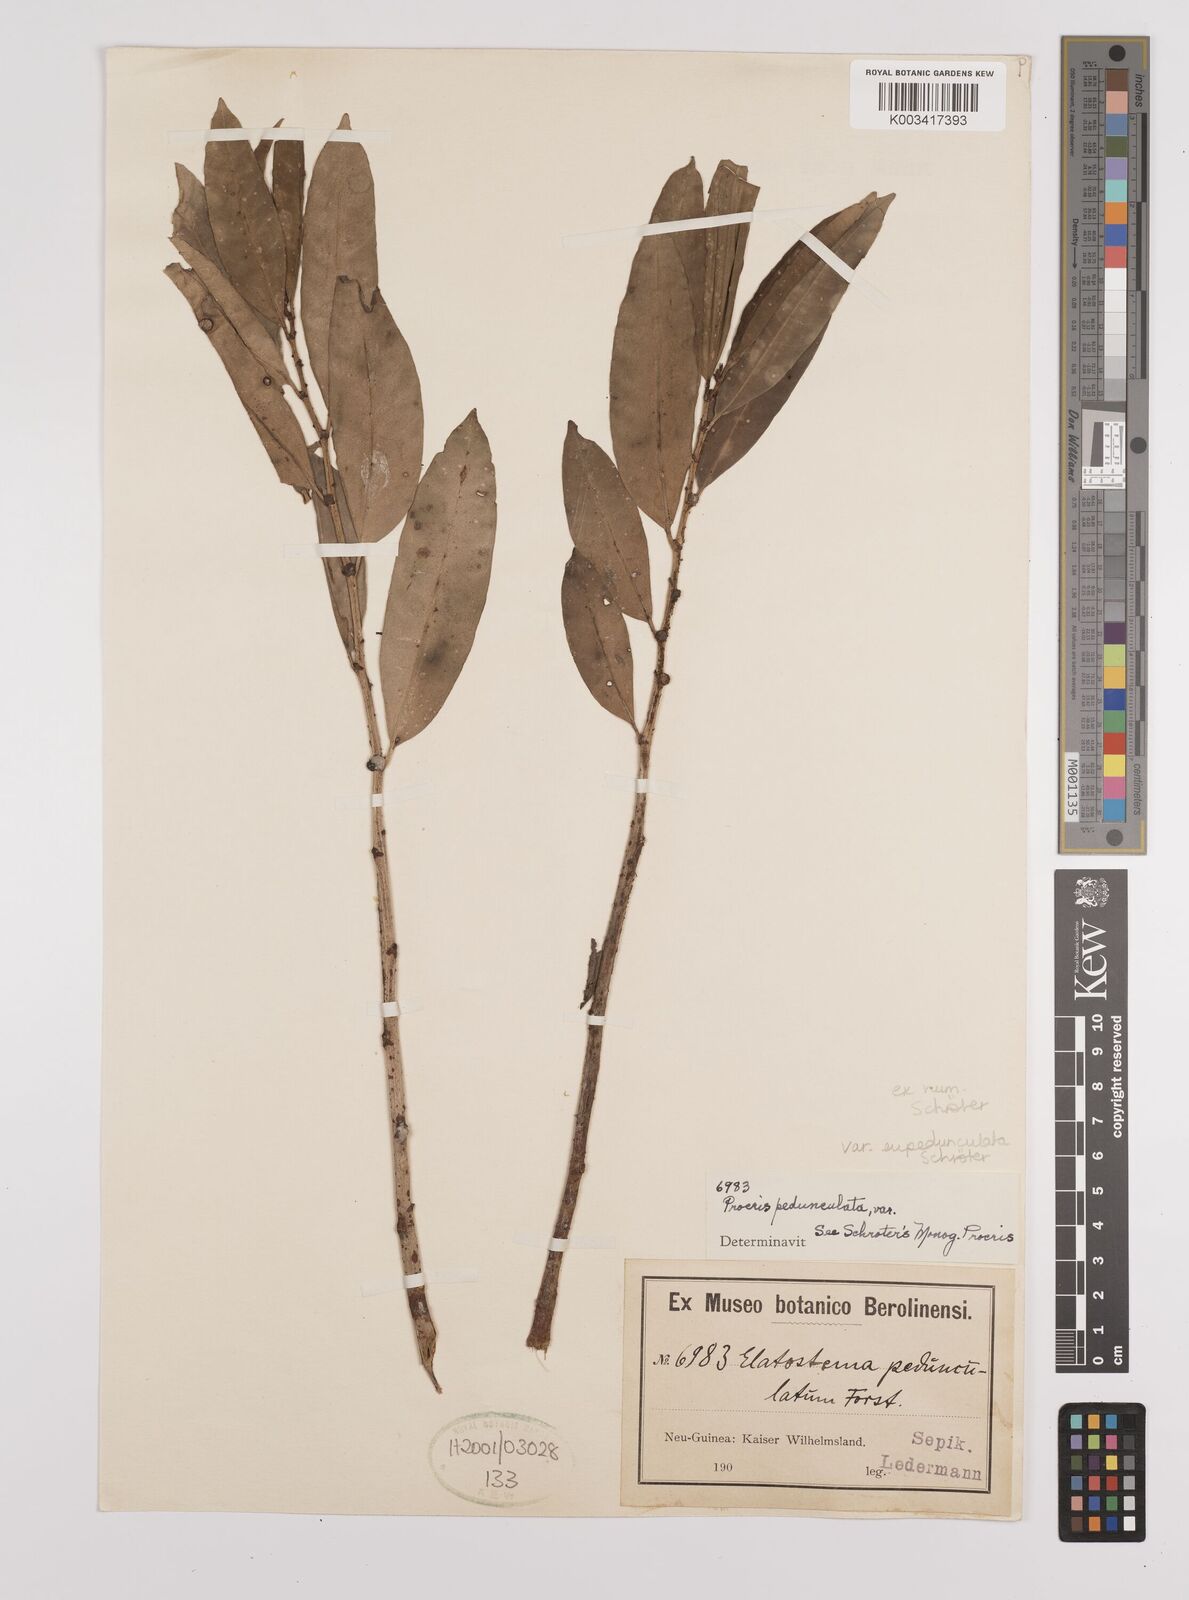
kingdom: Plantae
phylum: Tracheophyta
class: Magnoliopsida
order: Rosales
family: Urticaceae
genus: Procris
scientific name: Procris pedunculata
